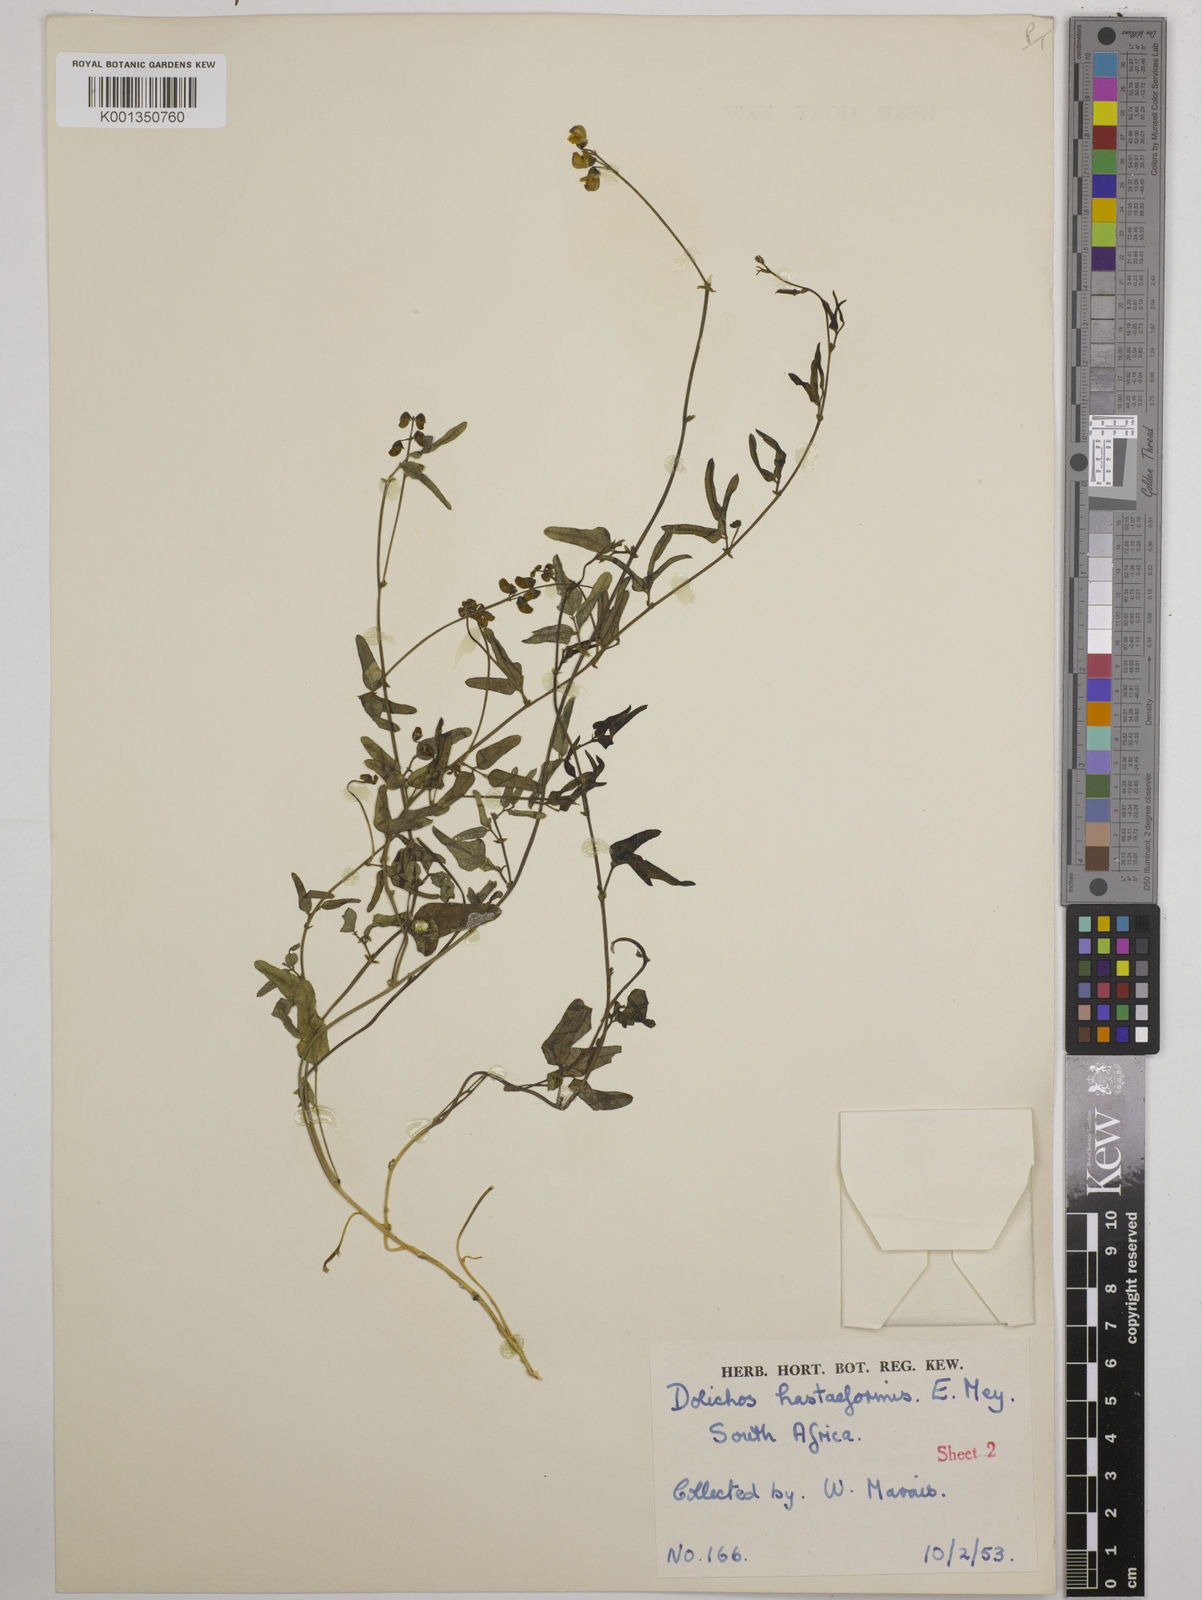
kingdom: Plantae
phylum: Tracheophyta
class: Magnoliopsida
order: Fabales
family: Fabaceae
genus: Dolichos
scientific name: Dolichos
